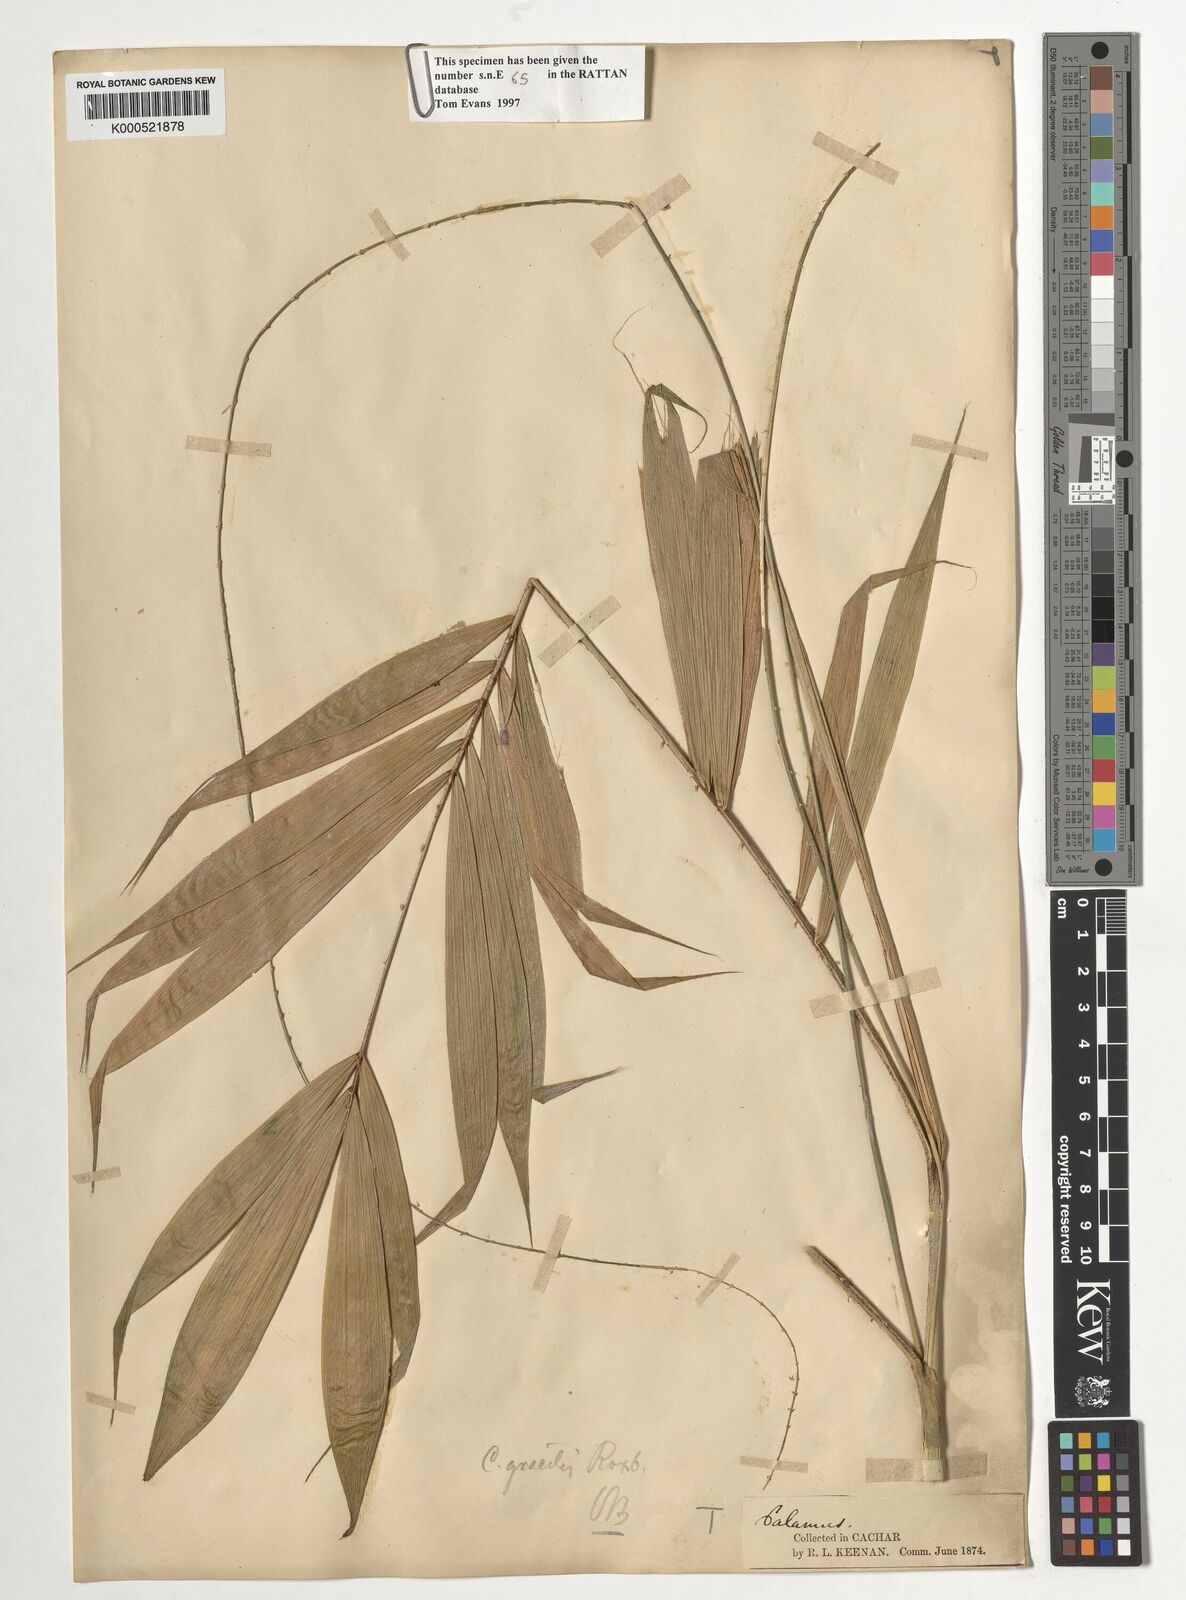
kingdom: Plantae
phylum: Tracheophyta
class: Liliopsida
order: Arecales
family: Arecaceae
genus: Calamus
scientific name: Calamus gracilis
